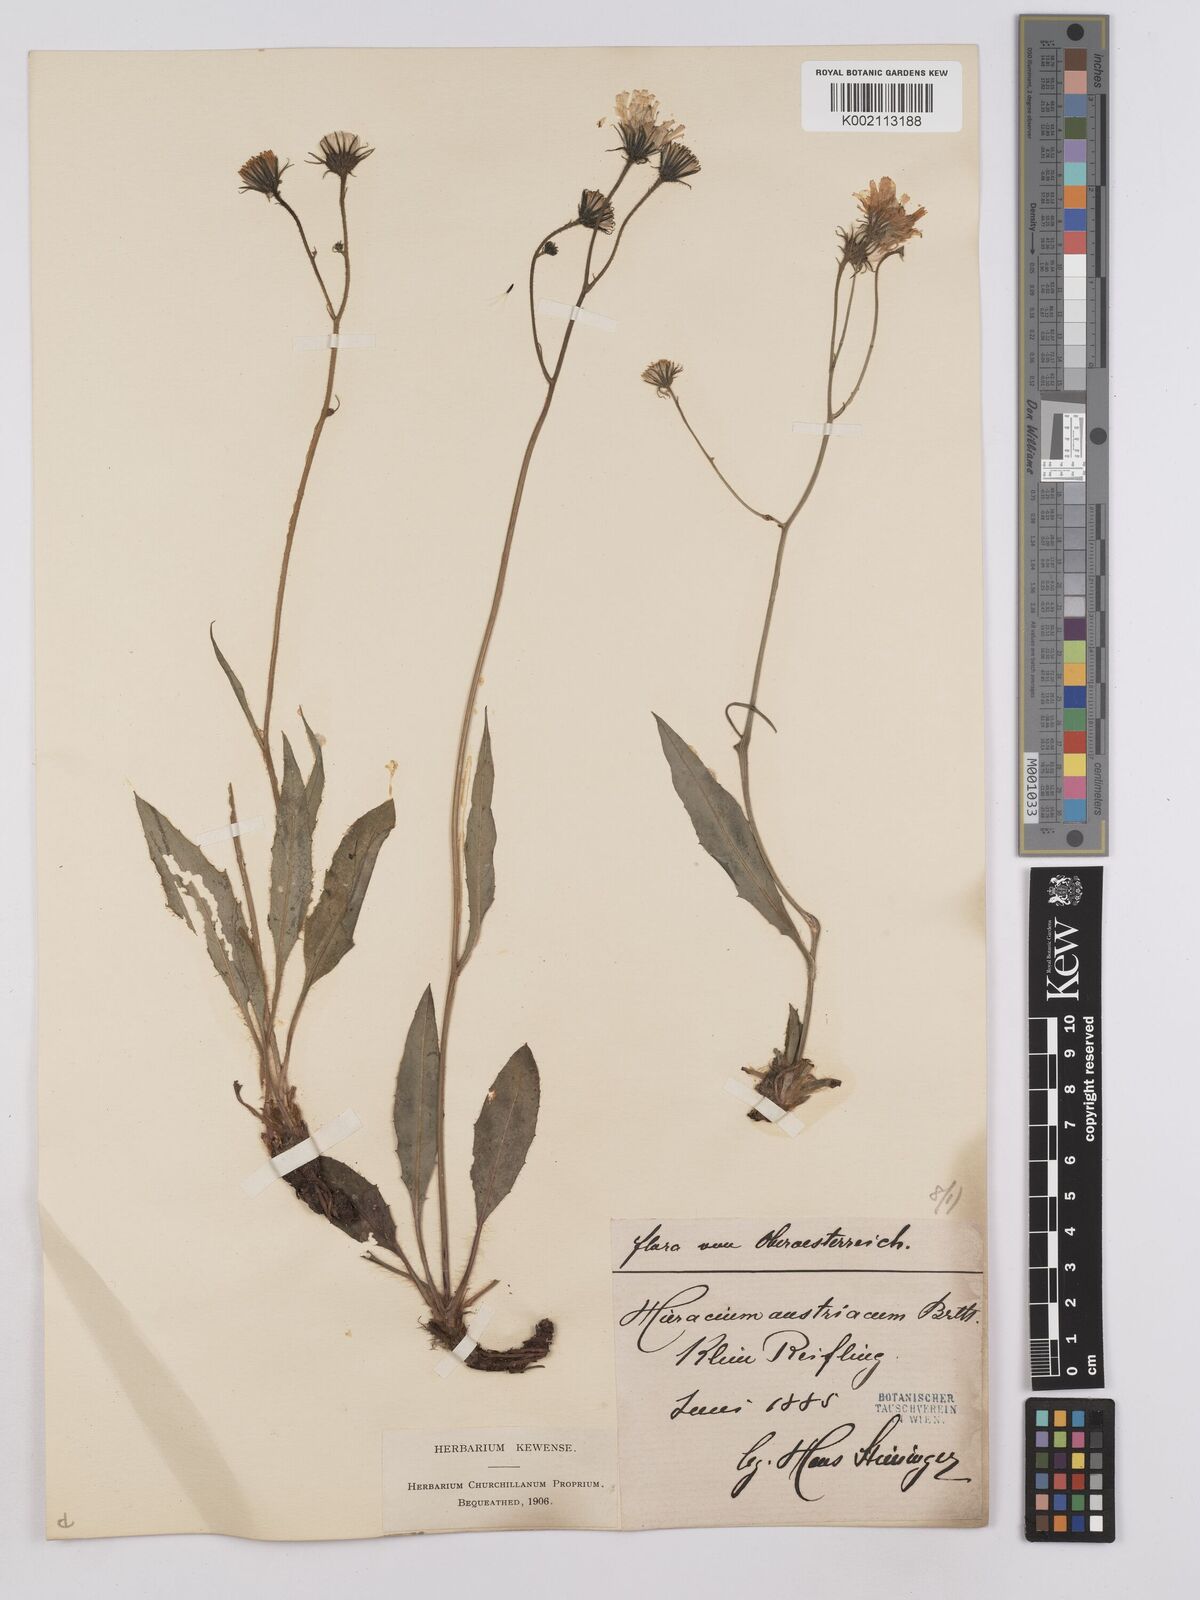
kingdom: Plantae
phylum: Tracheophyta
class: Magnoliopsida
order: Asterales
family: Asteraceae
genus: Crepis
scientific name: Crepis blattarioides
